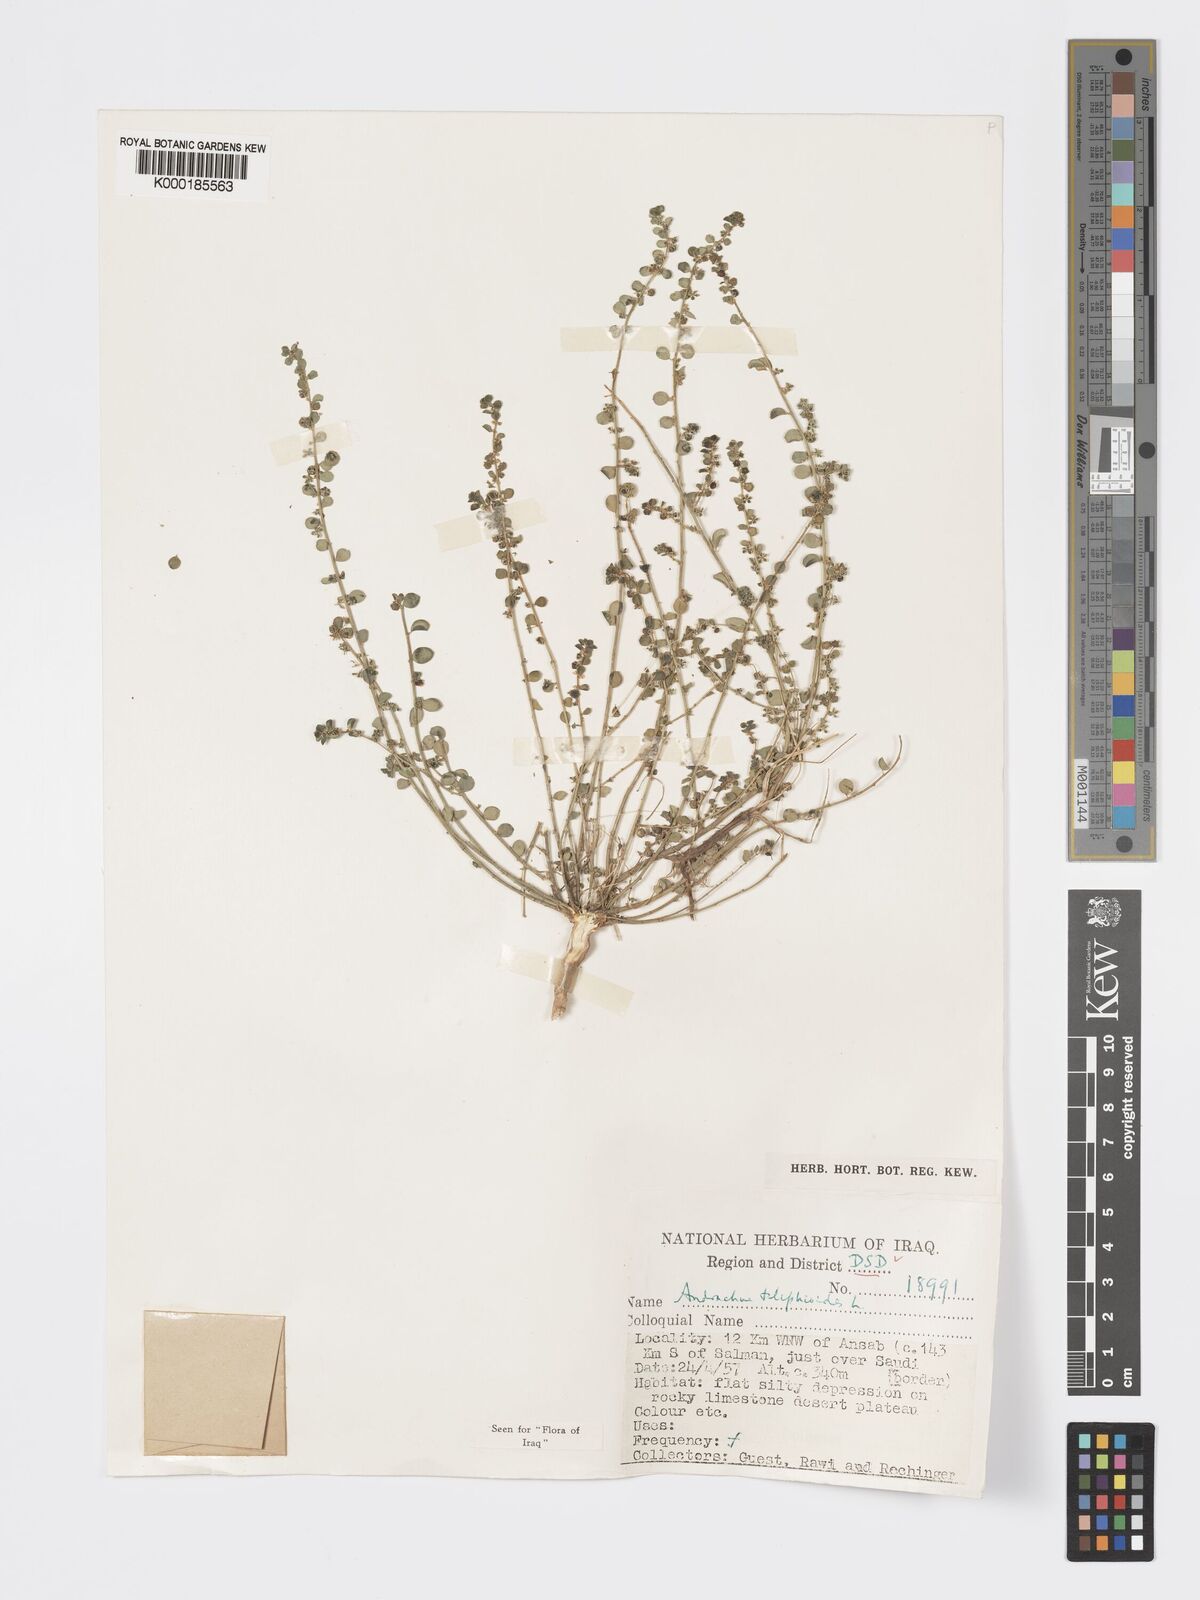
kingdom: Plantae
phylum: Tracheophyta
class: Magnoliopsida
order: Malpighiales
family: Phyllanthaceae
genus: Andrachne
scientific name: Andrachne telephioides
